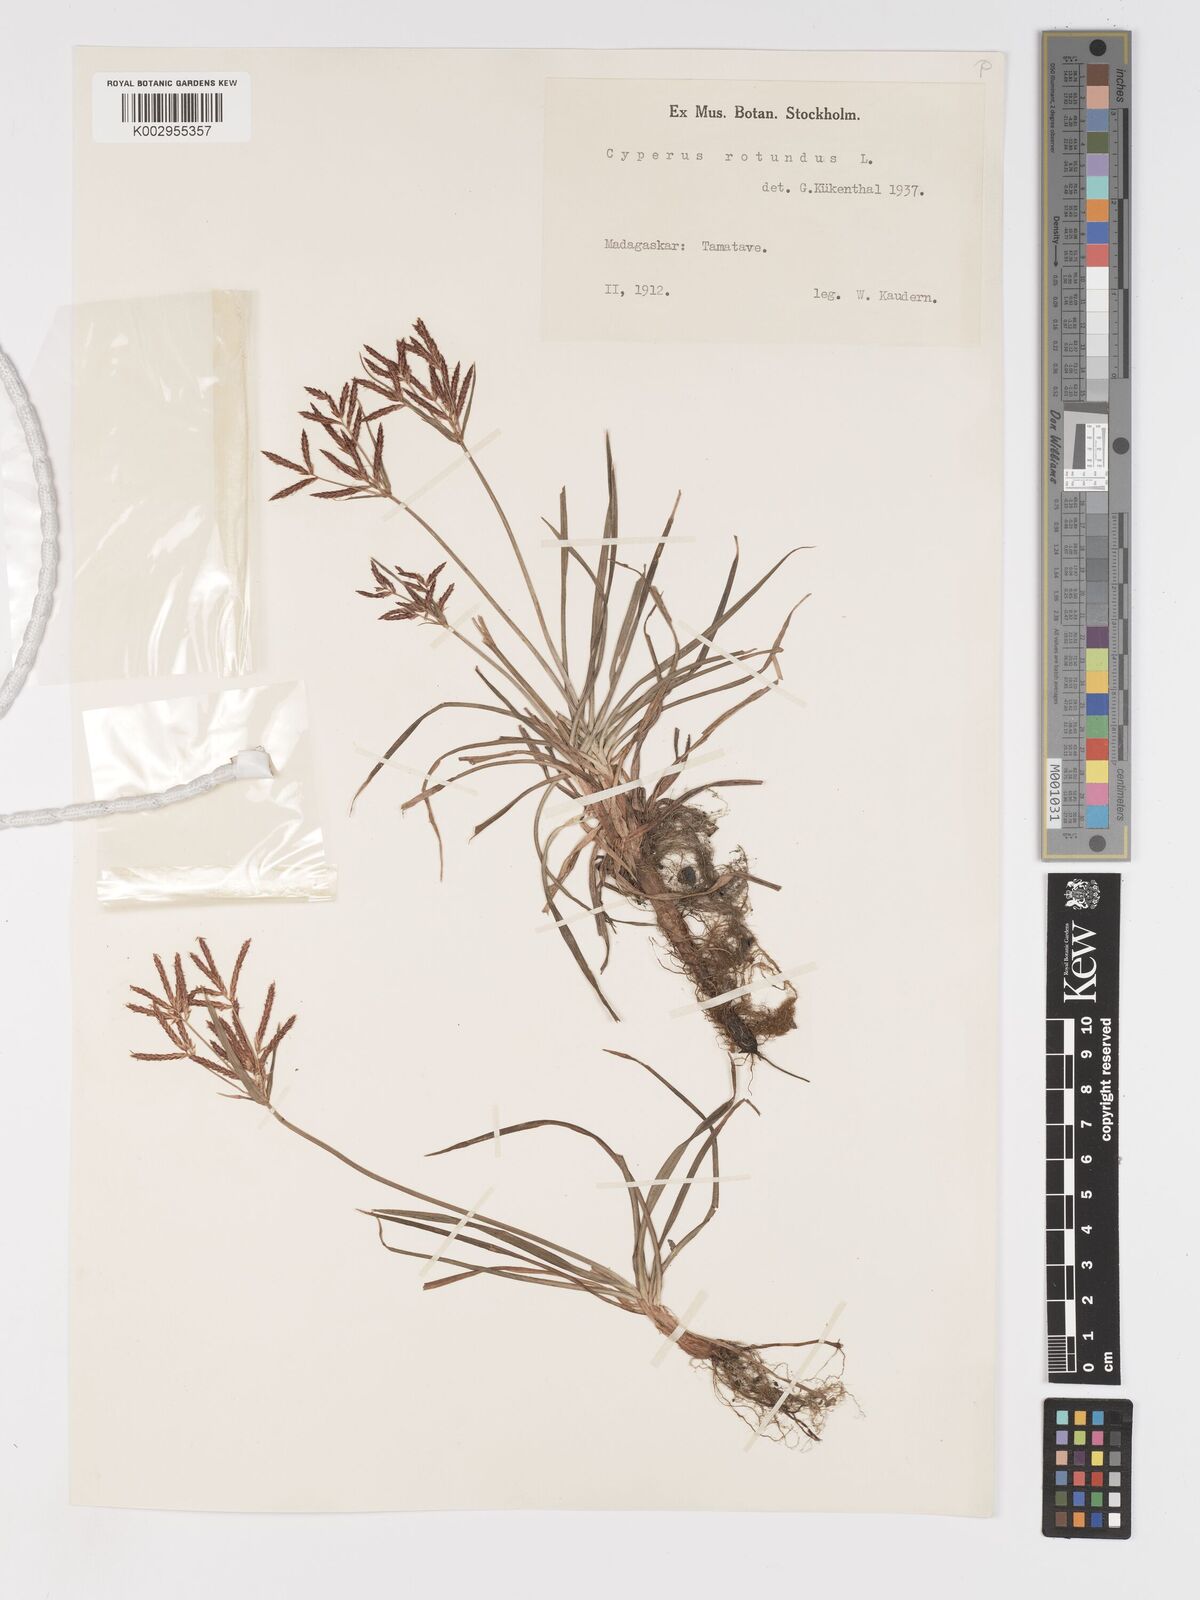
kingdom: Plantae
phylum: Tracheophyta
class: Liliopsida
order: Poales
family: Cyperaceae
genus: Cyperus
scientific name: Cyperus rotundus
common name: Nutgrass
